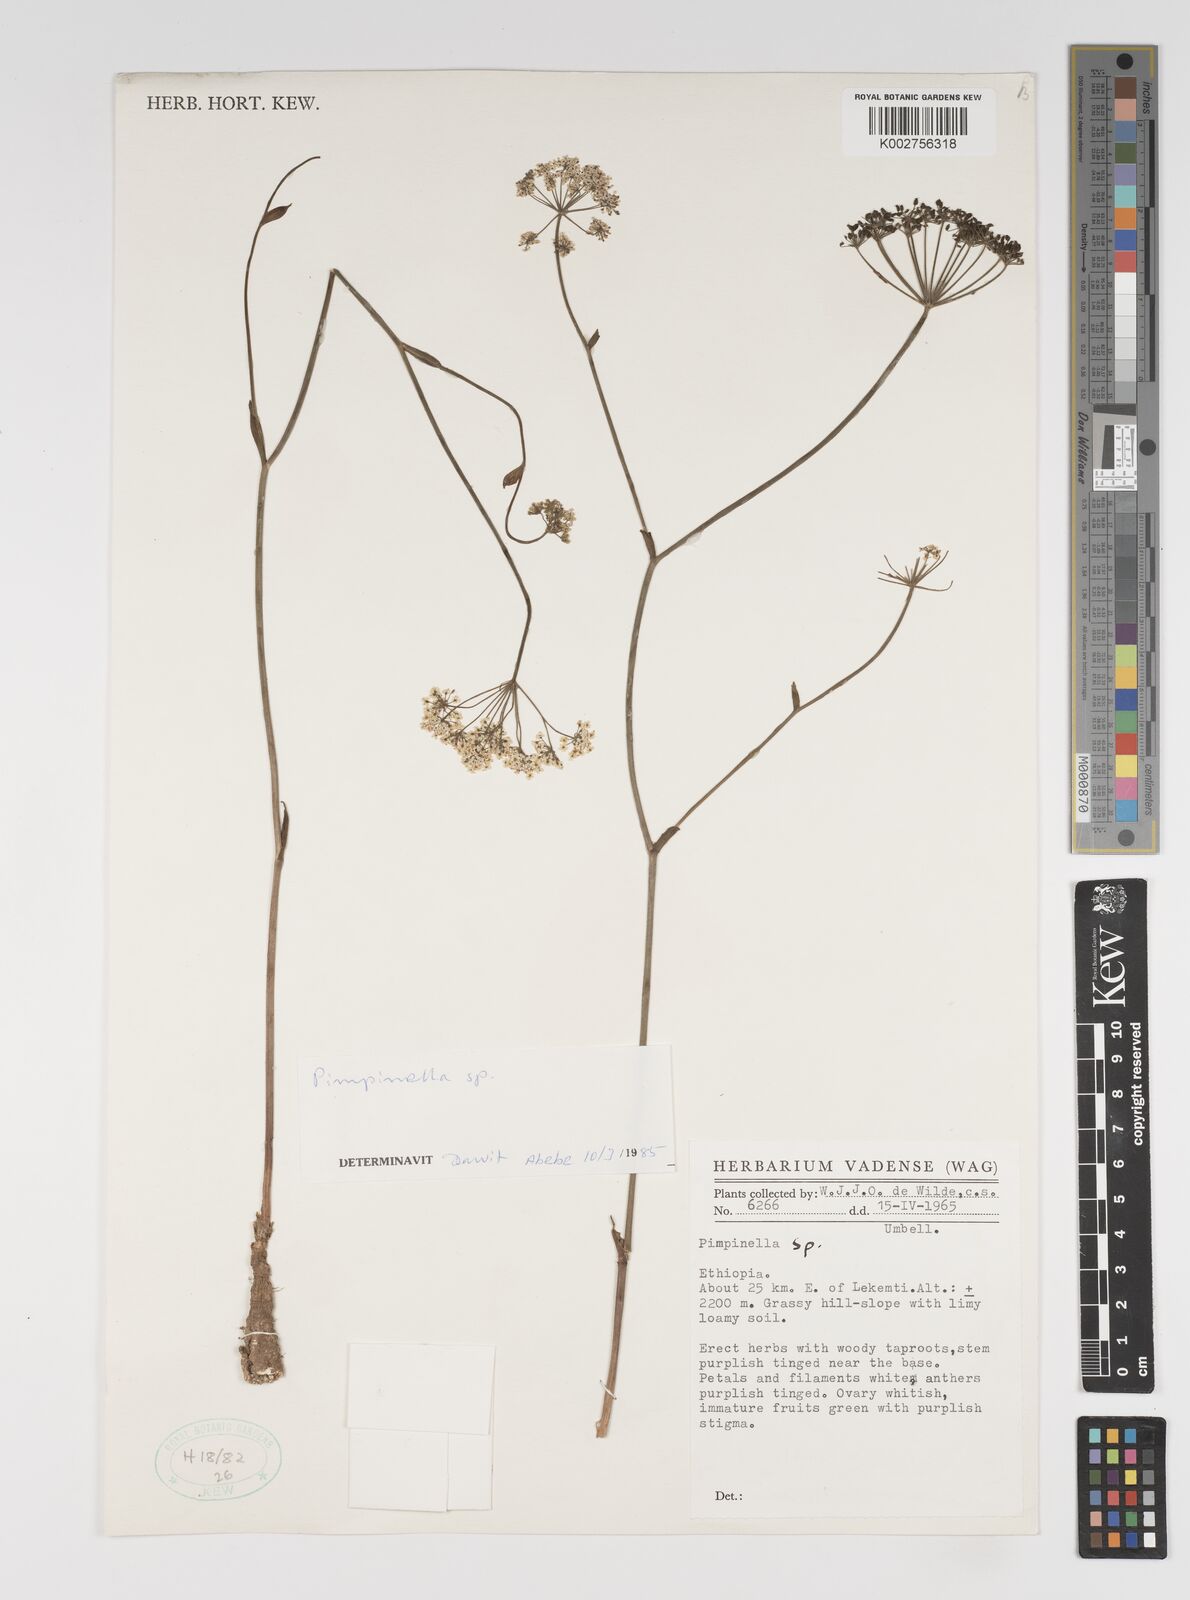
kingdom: Plantae
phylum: Tracheophyta
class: Magnoliopsida
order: Apiales
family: Apiaceae
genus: Pimpinella
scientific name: Pimpinella
